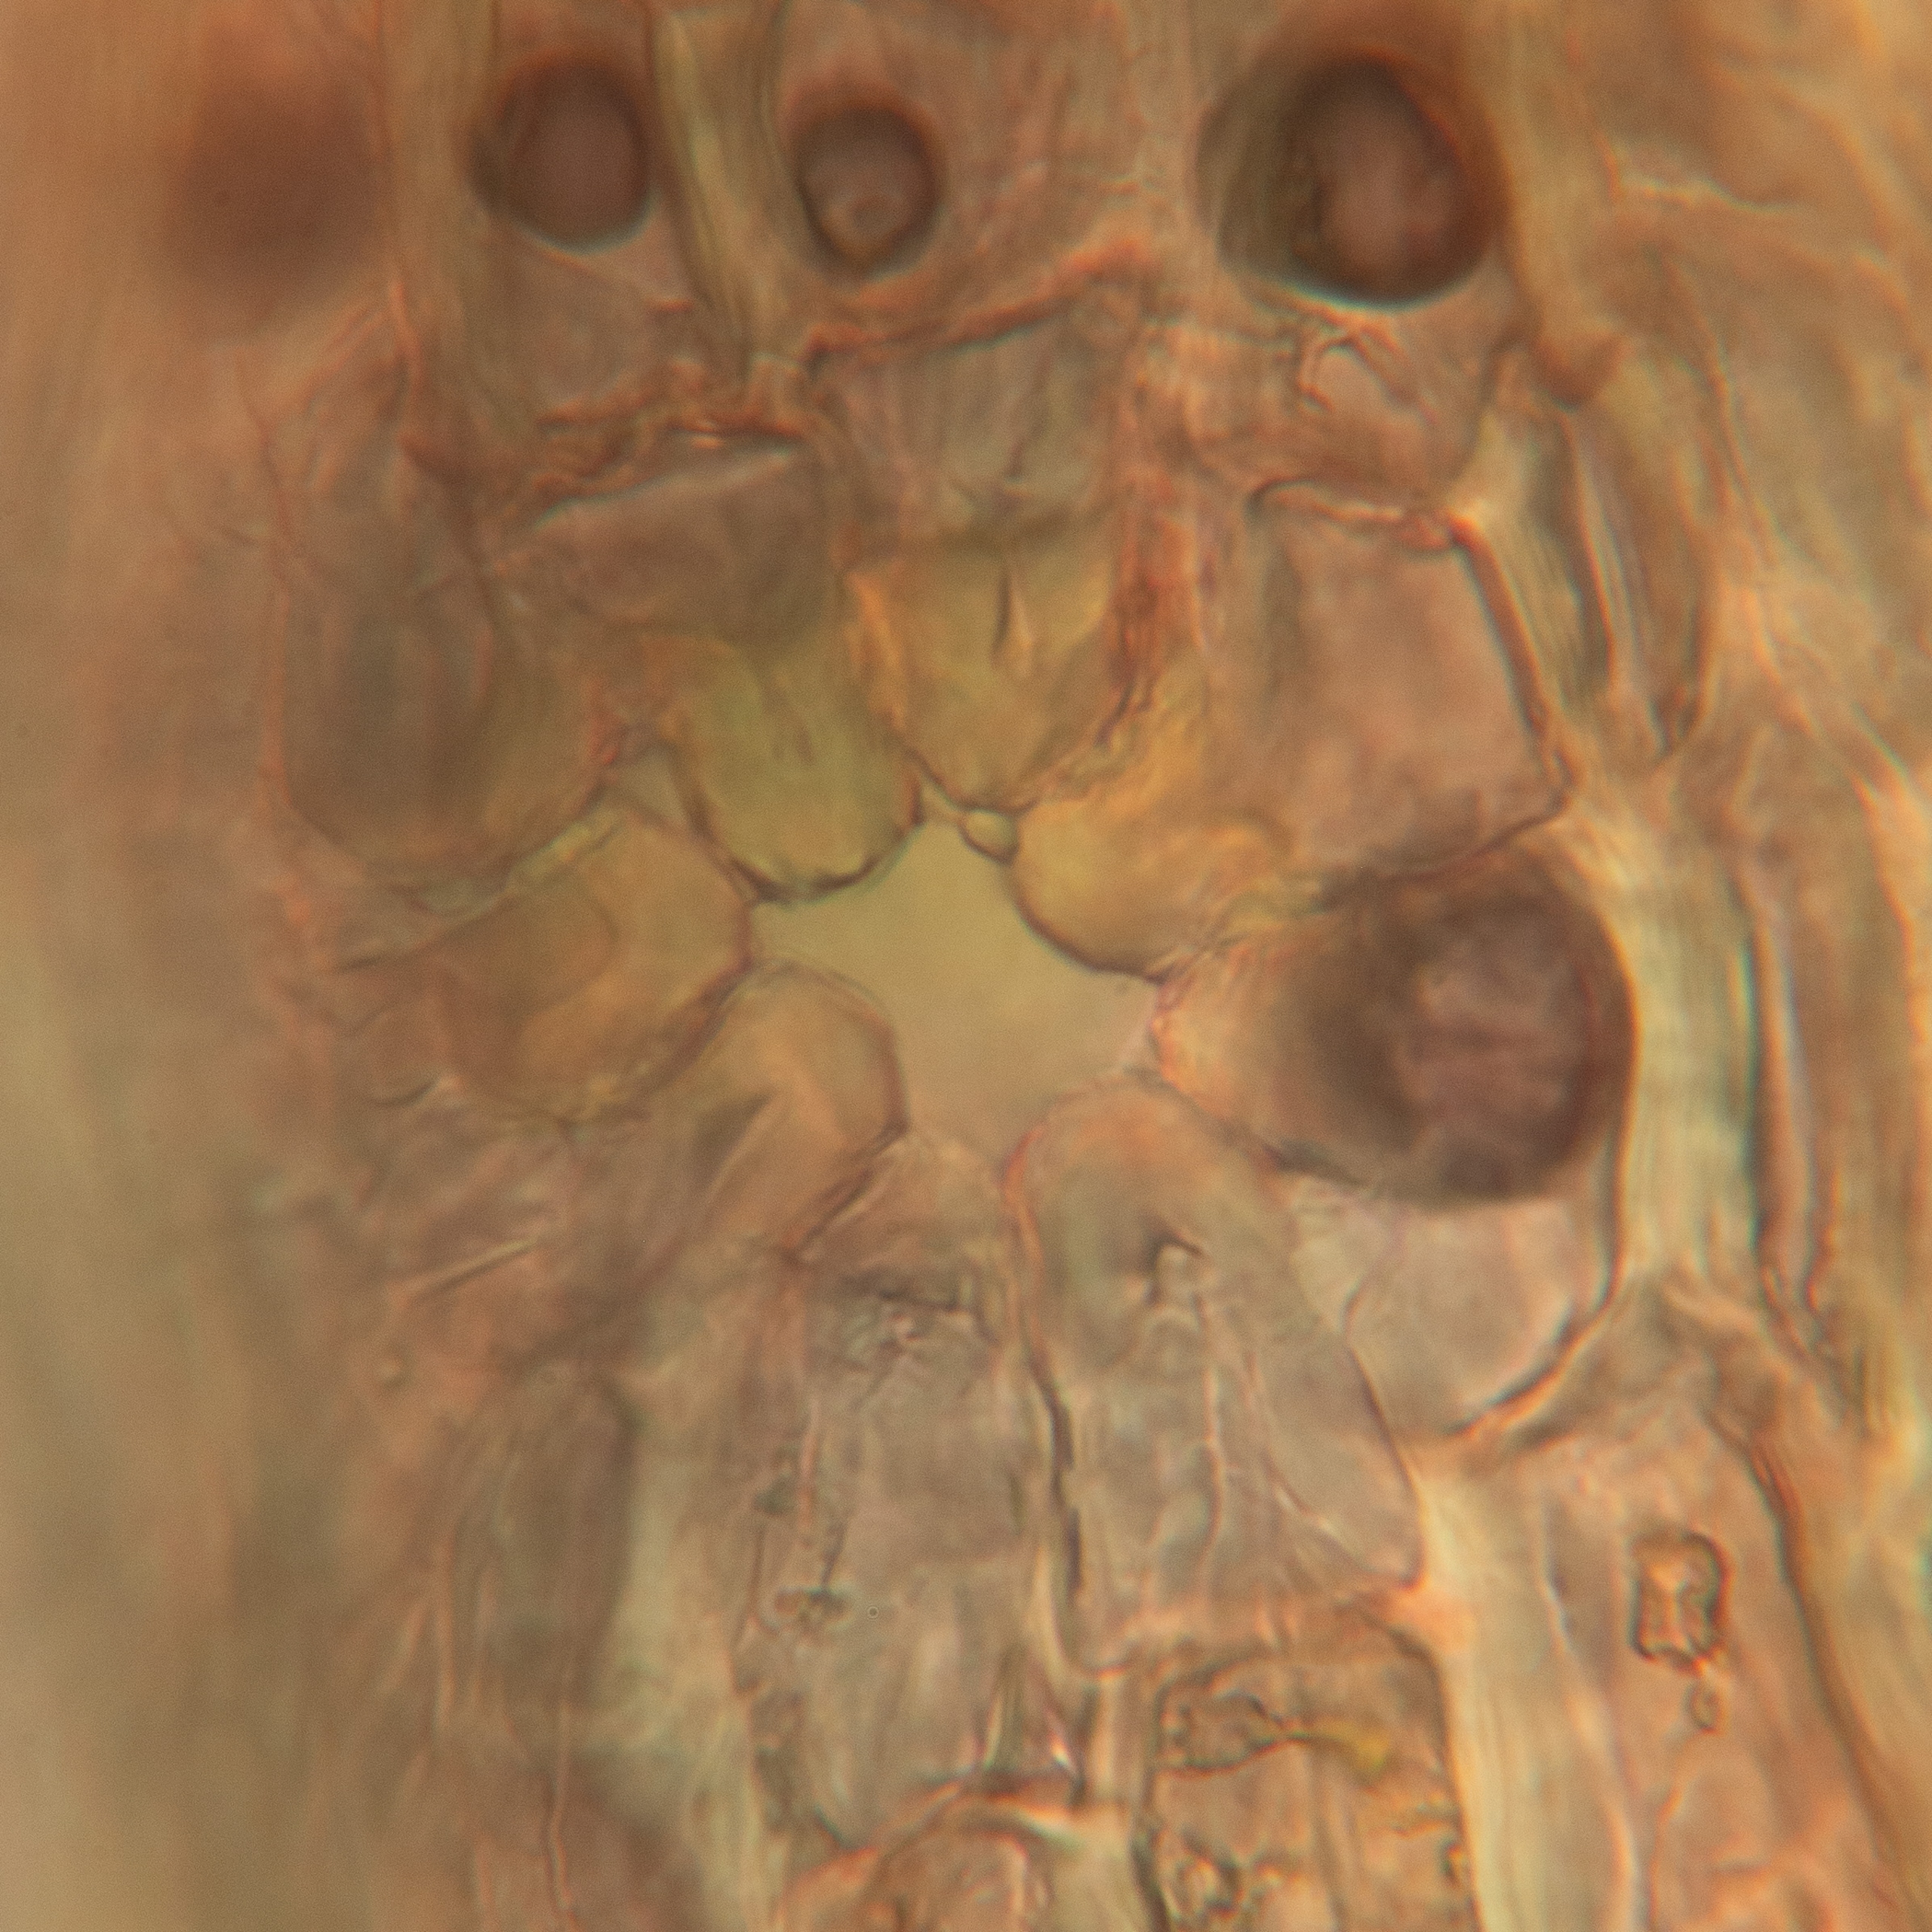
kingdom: Plantae
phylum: Bryophyta
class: Bryopsida
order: Orthotrichales
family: Orthotrichaceae
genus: Orthotrichum
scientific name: Orthotrichum stramineum
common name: Strågul furehætte
